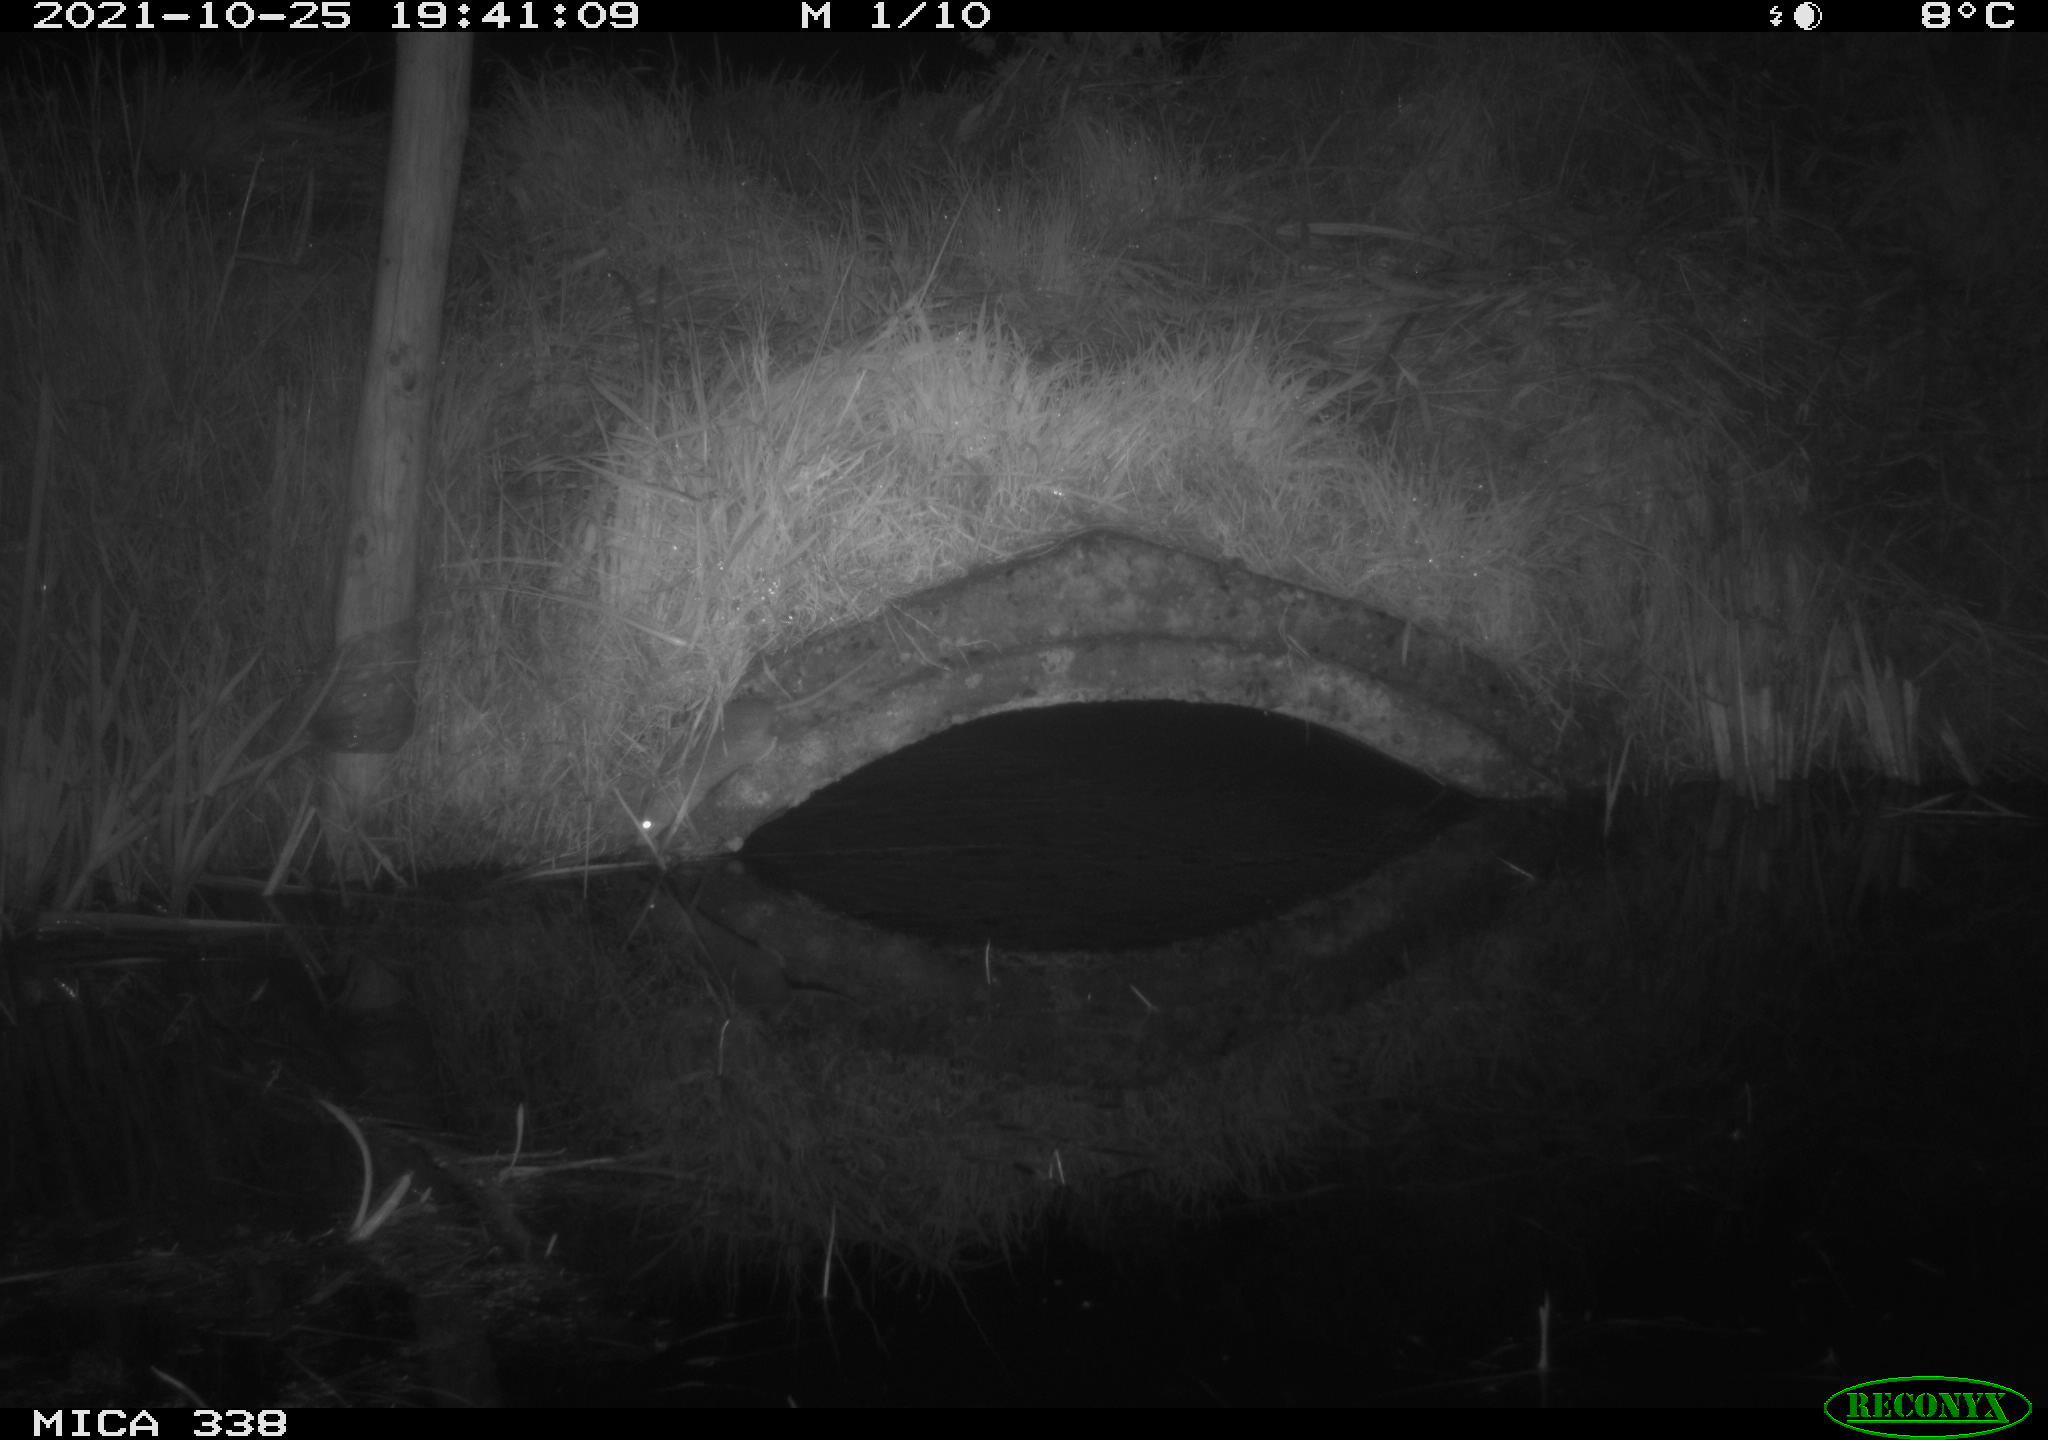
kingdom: Animalia
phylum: Chordata
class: Mammalia
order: Rodentia
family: Muridae
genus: Rattus
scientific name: Rattus norvegicus
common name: Brown rat
